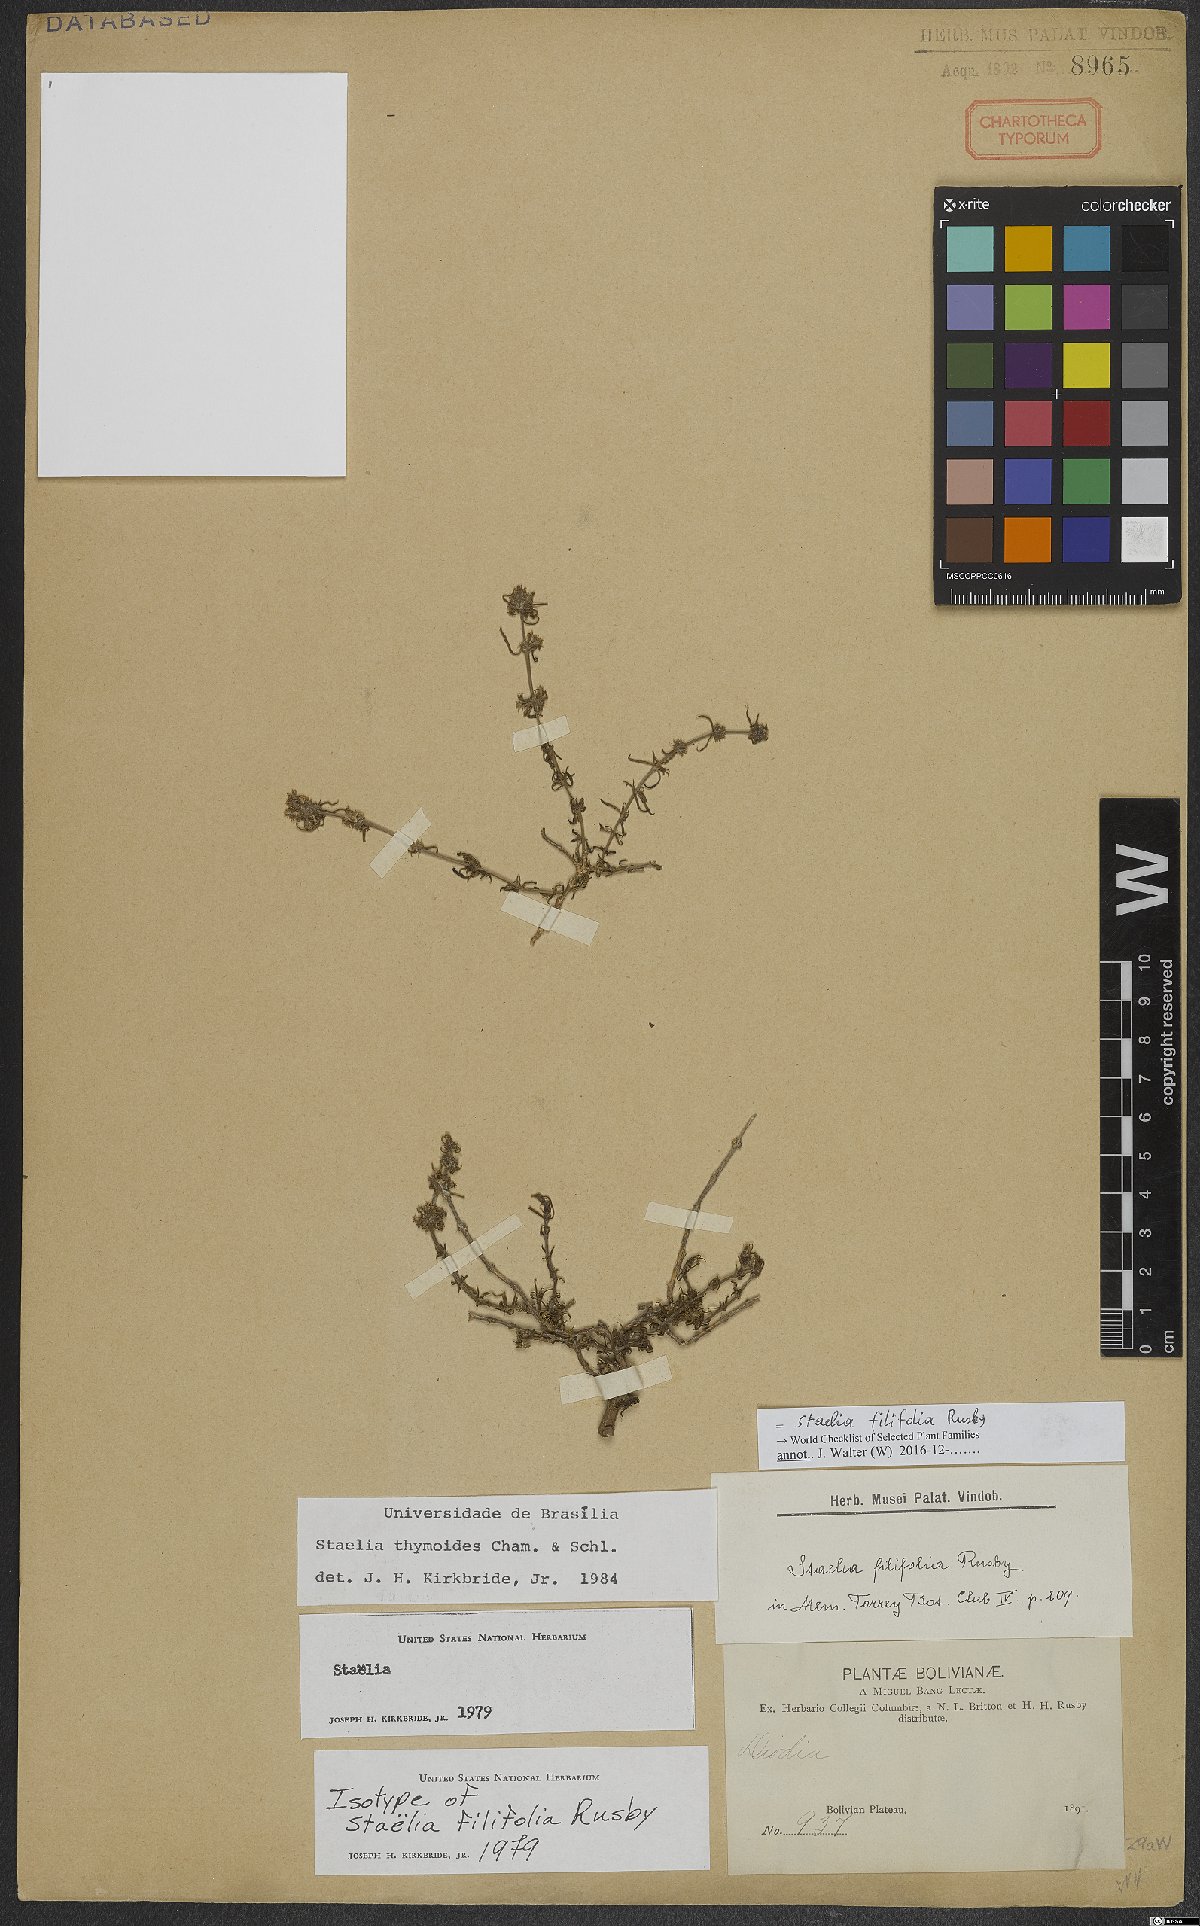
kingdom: Plantae
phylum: Tracheophyta
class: Magnoliopsida
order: Gentianales
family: Rubiaceae
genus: Staelia
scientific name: Staelia virgata
